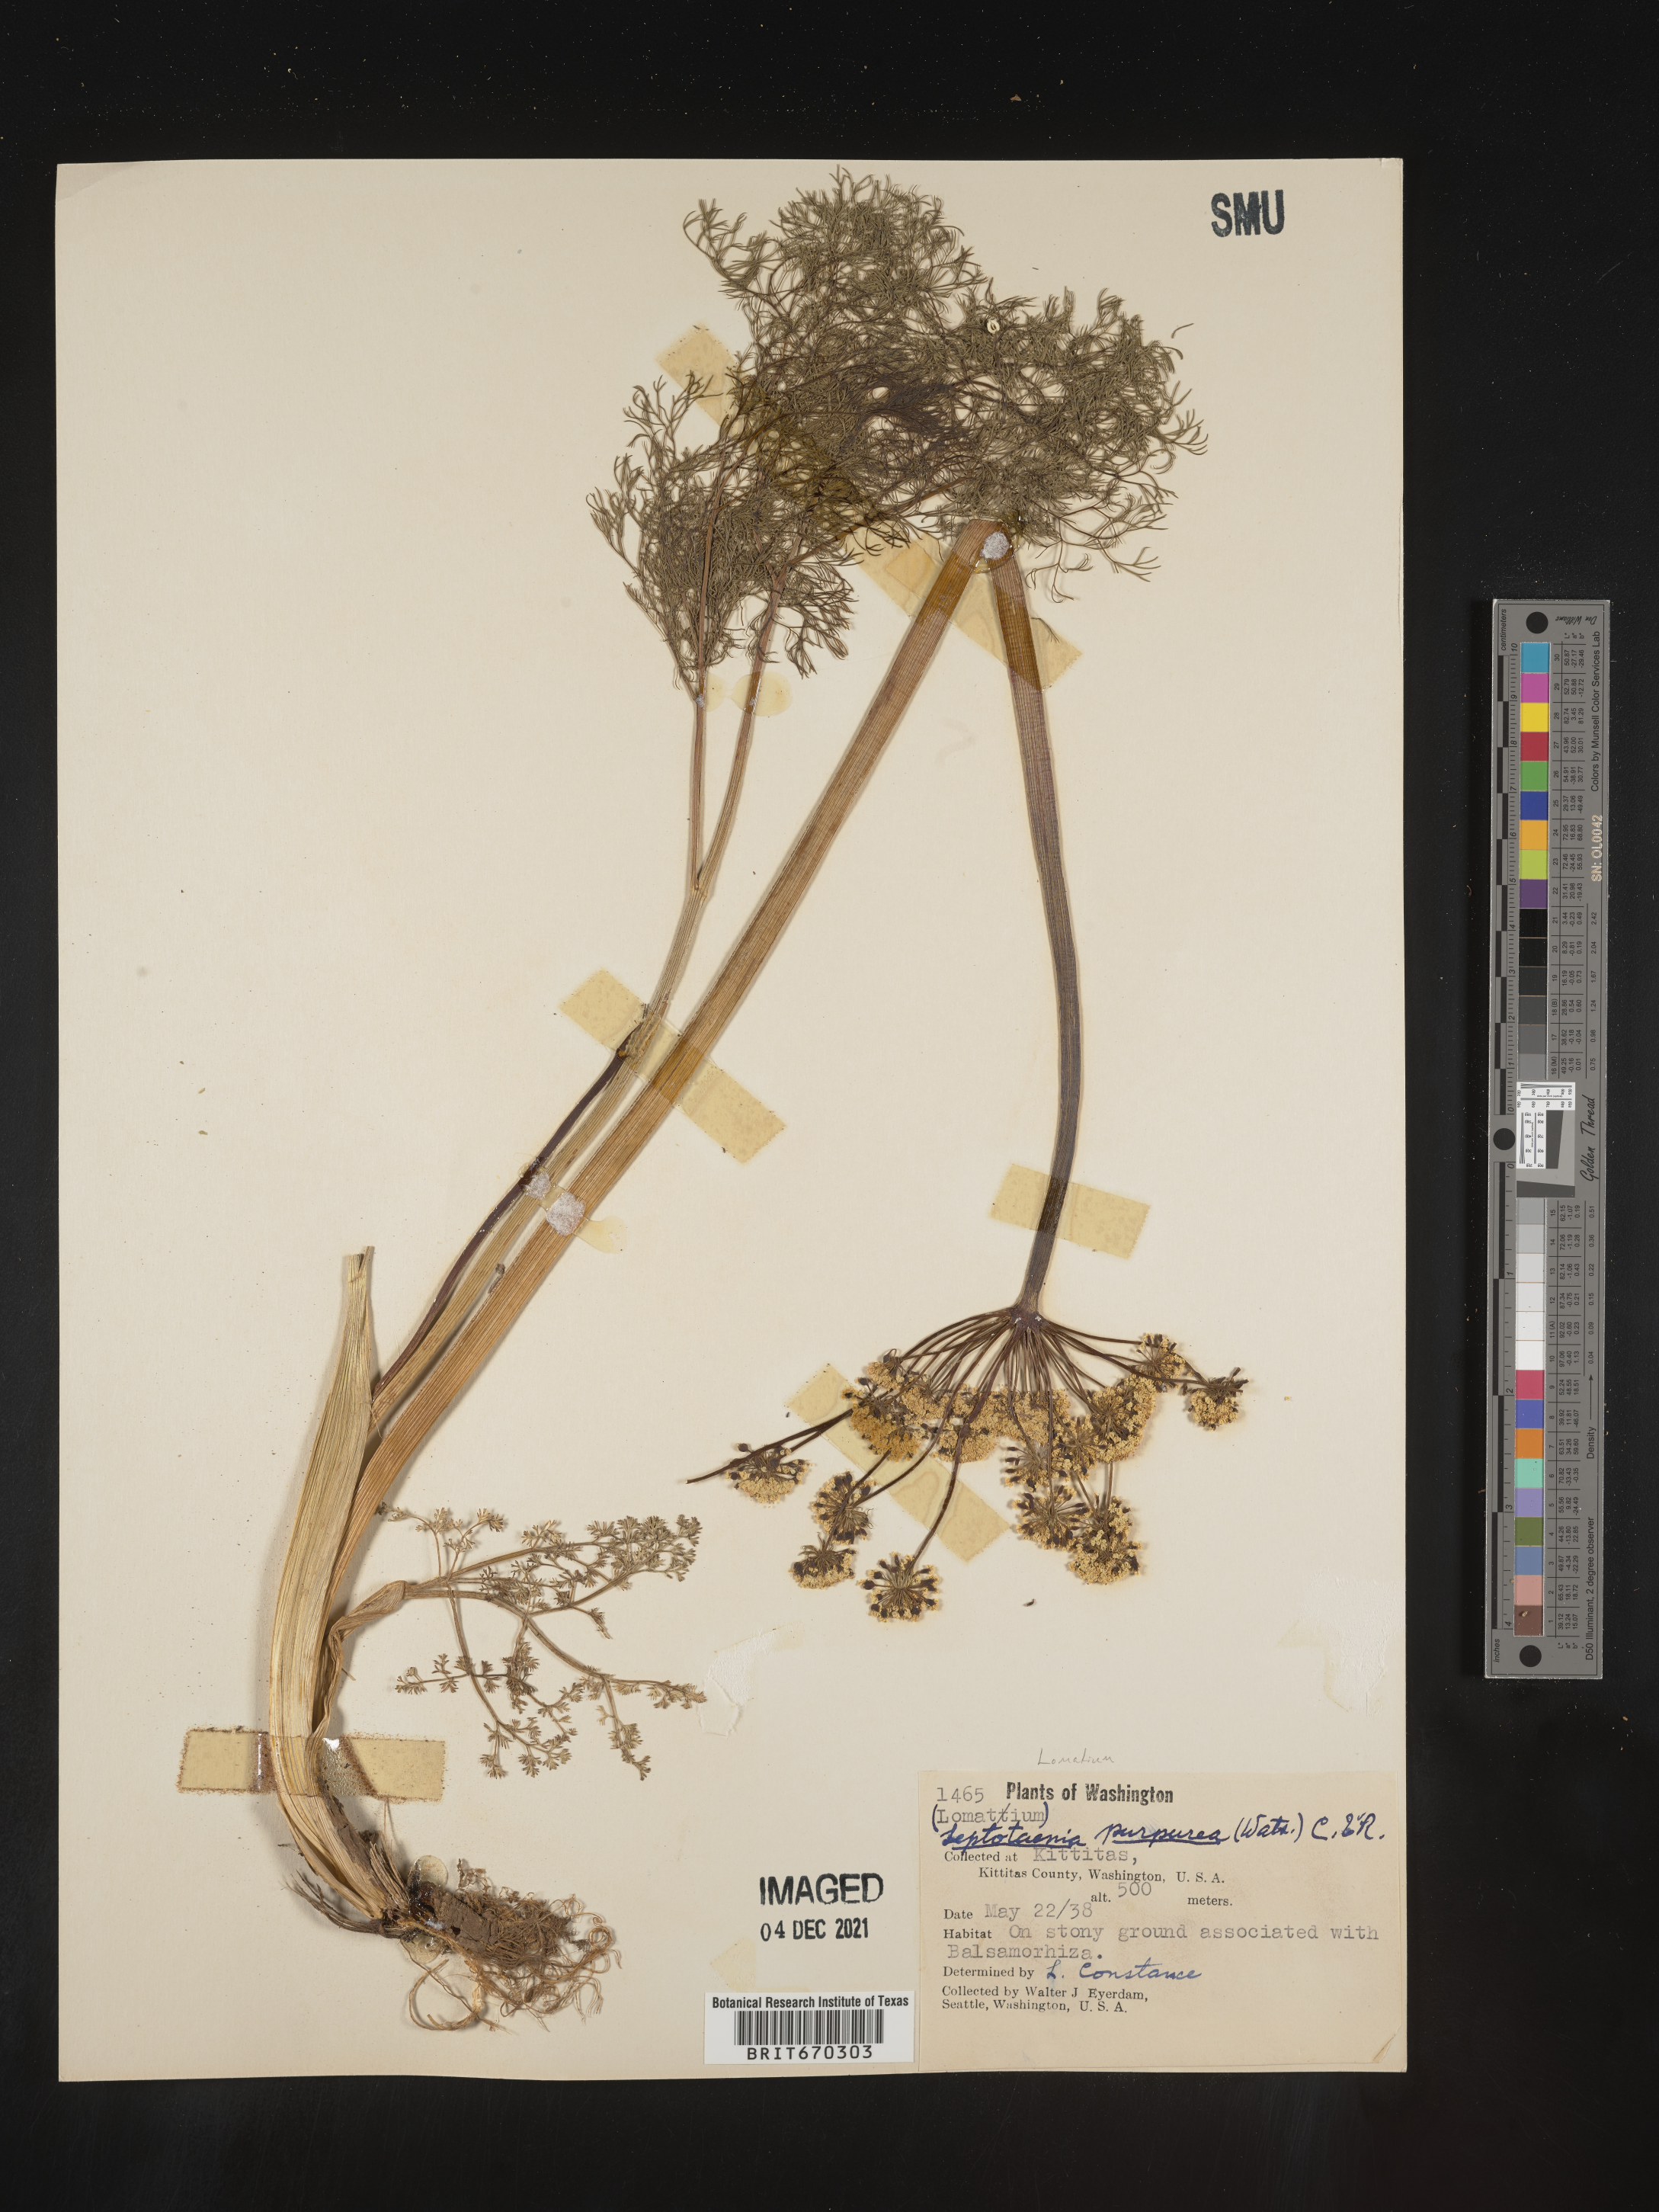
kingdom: Plantae
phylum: Tracheophyta
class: Magnoliopsida
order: Apiales
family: Apiaceae
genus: Lomatium
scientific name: Lomatium columbianum
